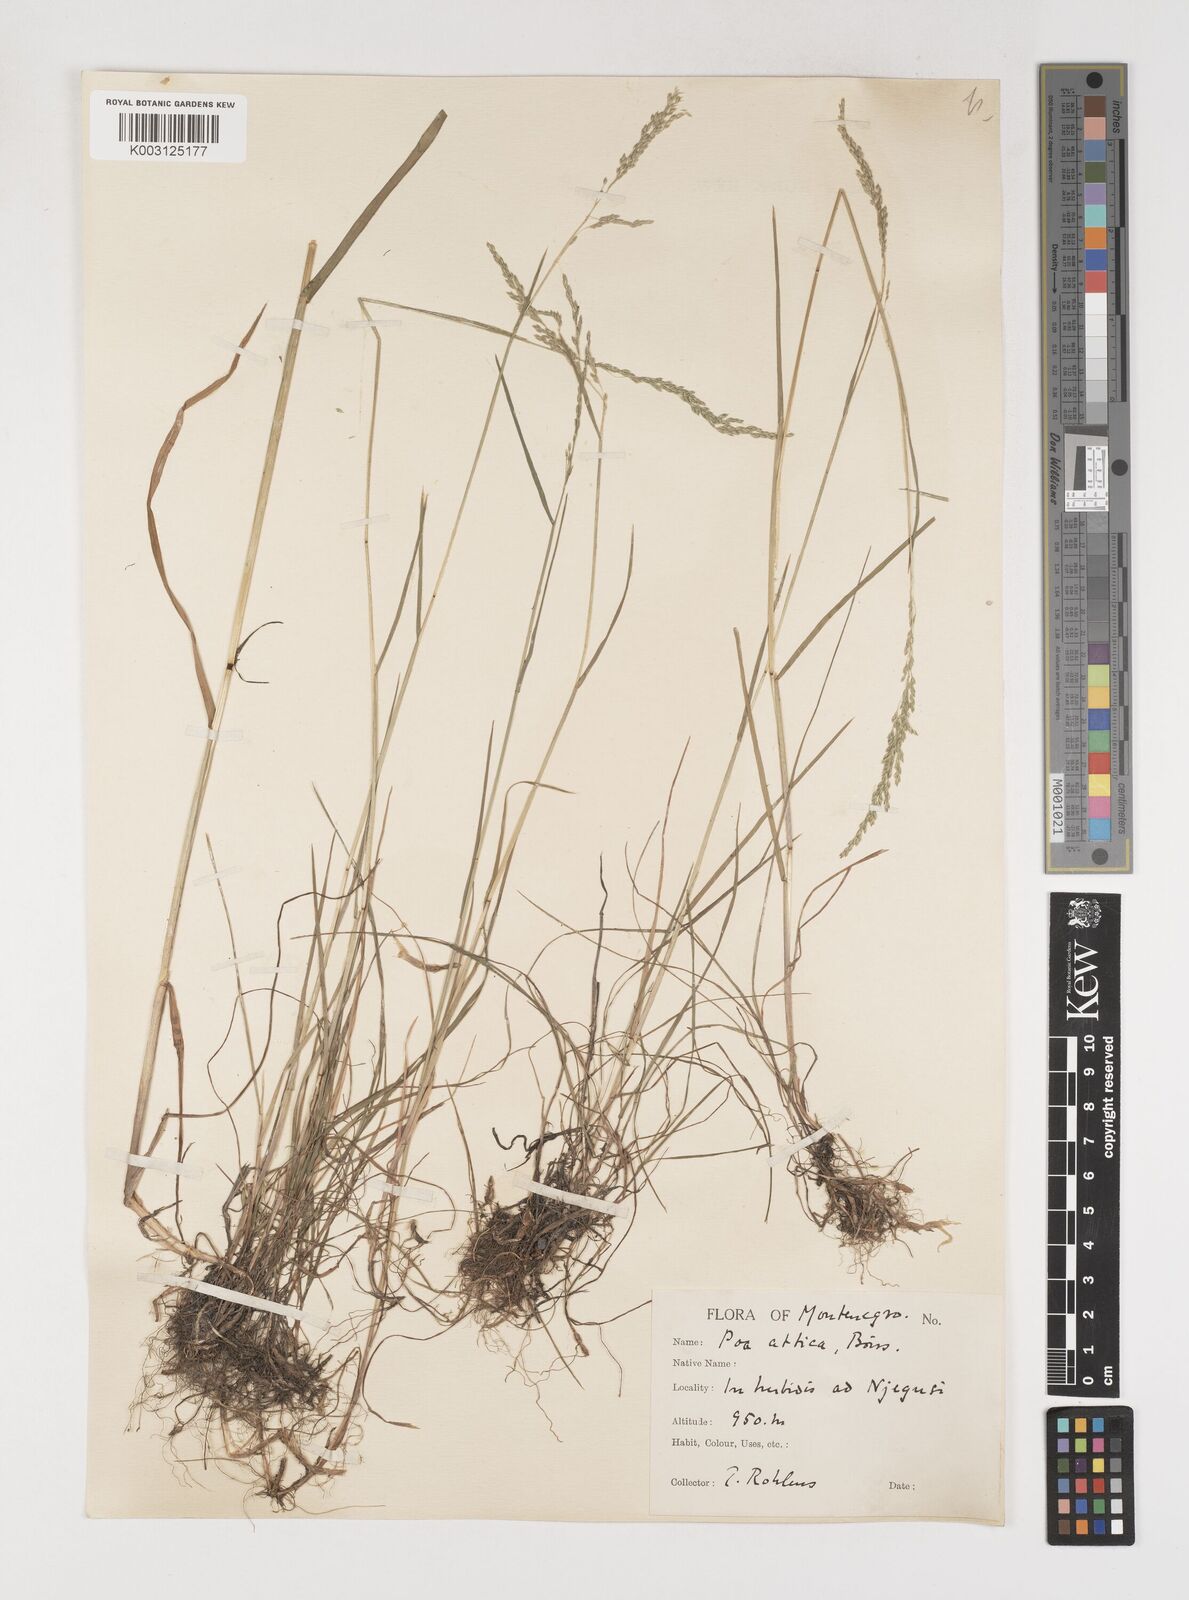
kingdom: Plantae
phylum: Tracheophyta
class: Liliopsida
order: Poales
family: Poaceae
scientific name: Poaceae
